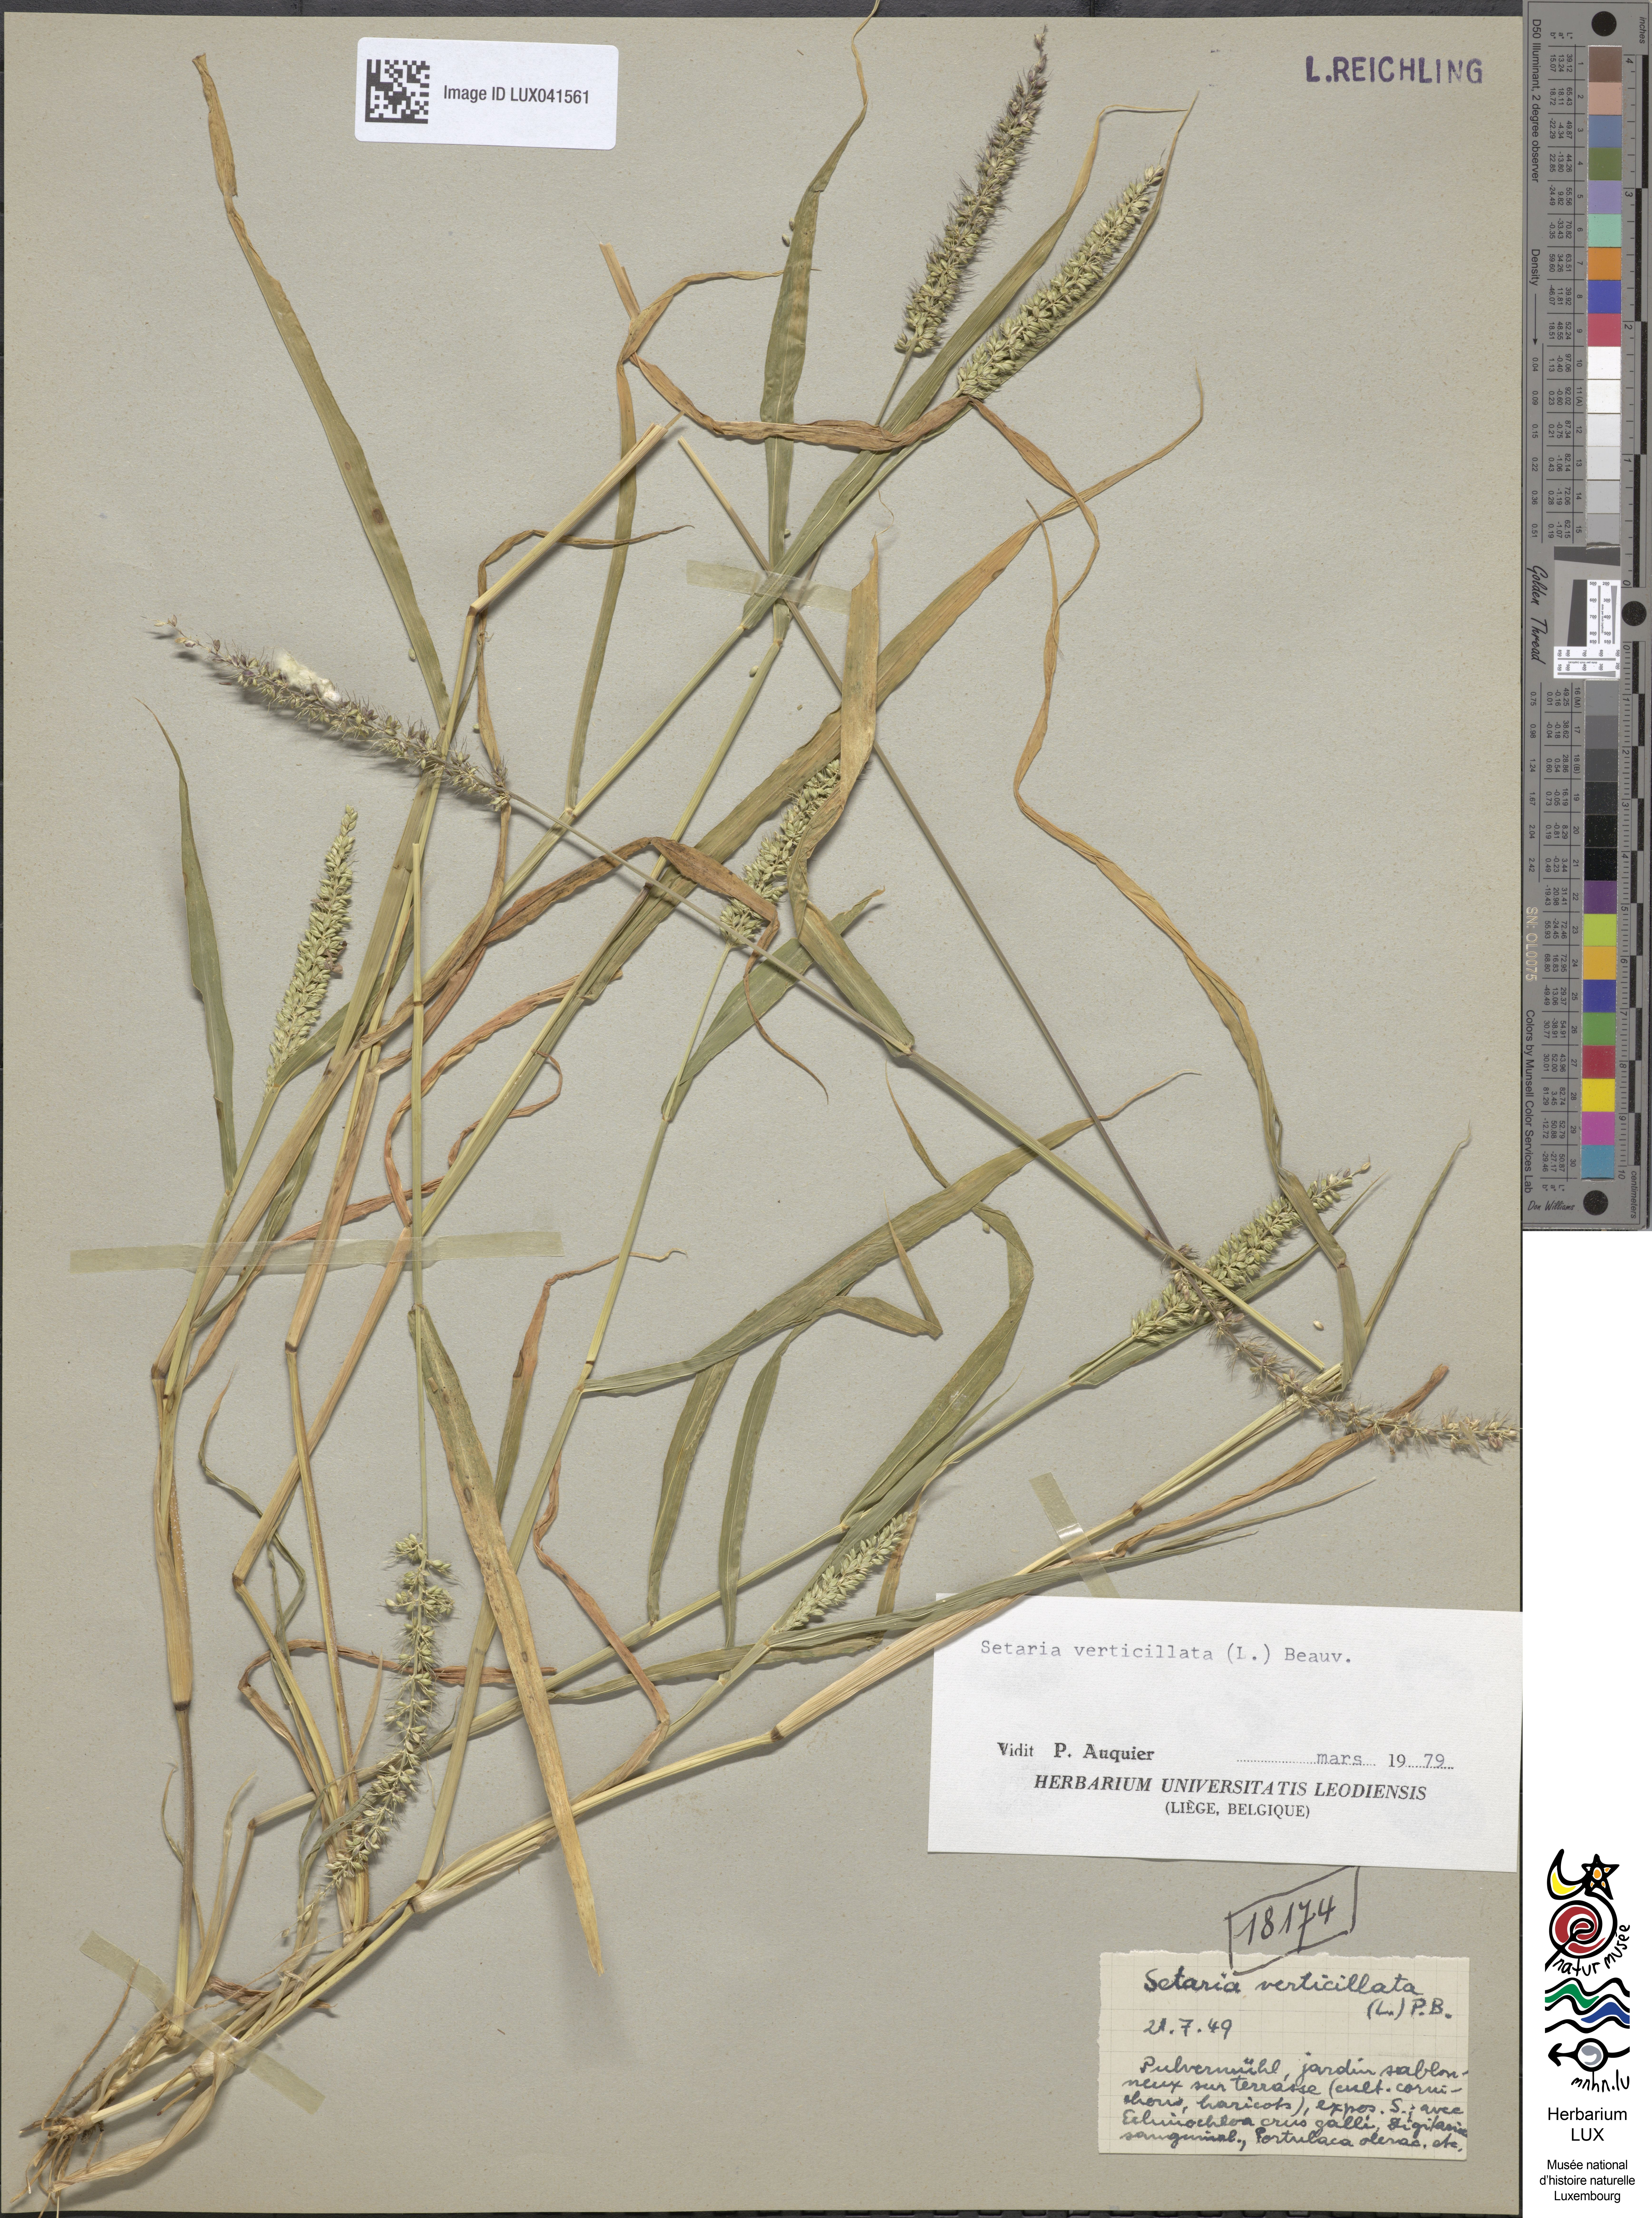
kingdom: Plantae
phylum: Tracheophyta
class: Liliopsida
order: Poales
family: Poaceae
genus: Setaria
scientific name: Setaria verticillata
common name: Hooked bristlegrass
